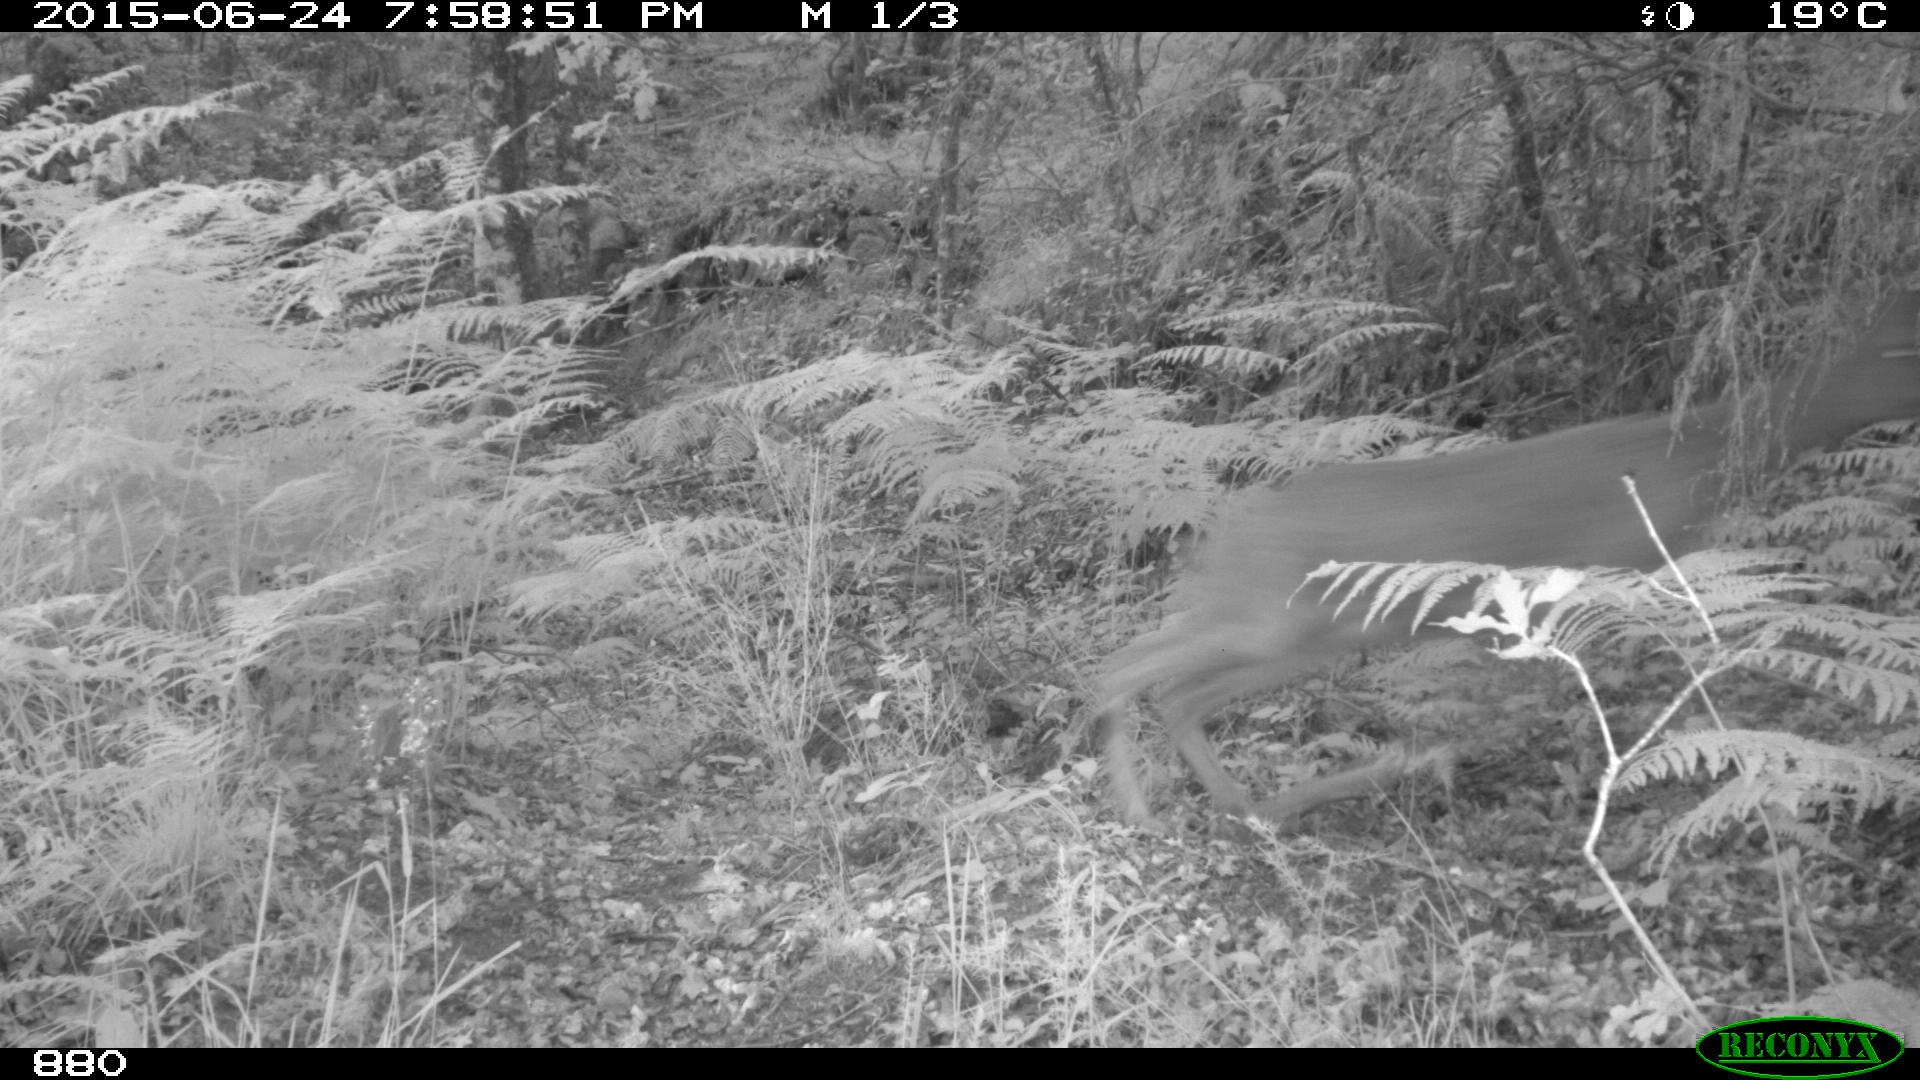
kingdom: Animalia
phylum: Chordata
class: Mammalia
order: Artiodactyla
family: Cervidae
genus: Capreolus
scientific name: Capreolus capreolus
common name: Western roe deer
